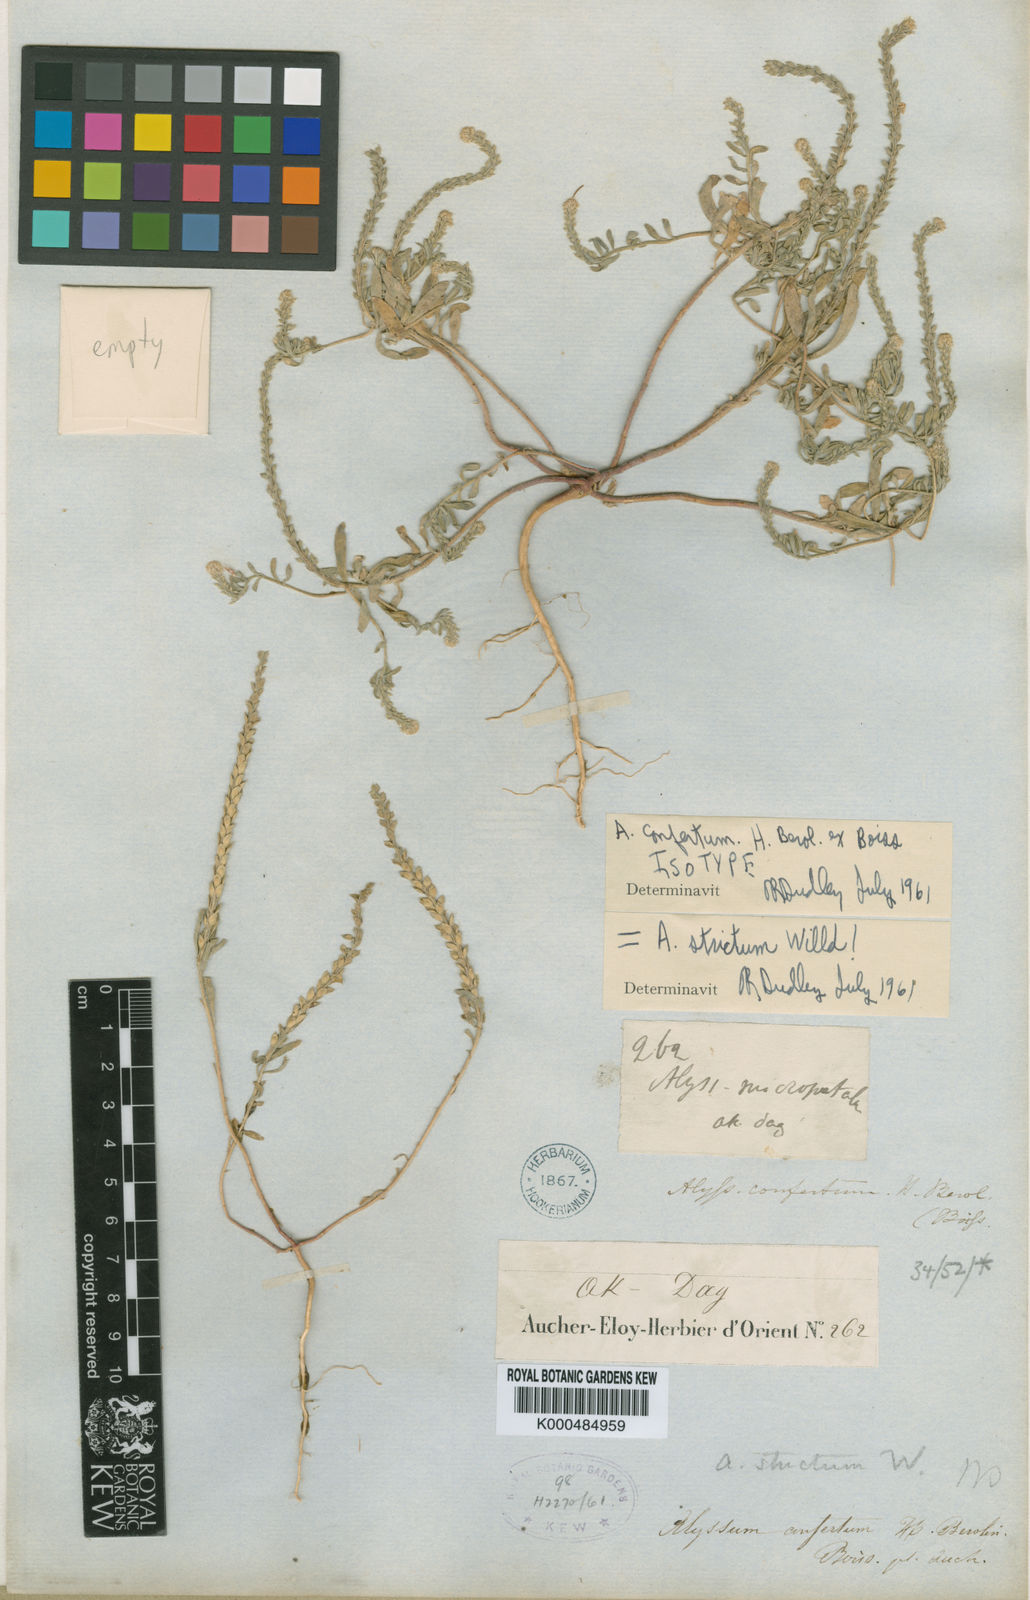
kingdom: Plantae
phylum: Tracheophyta
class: Magnoliopsida
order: Brassicales
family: Brassicaceae
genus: Alyssum
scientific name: Alyssum strictum
